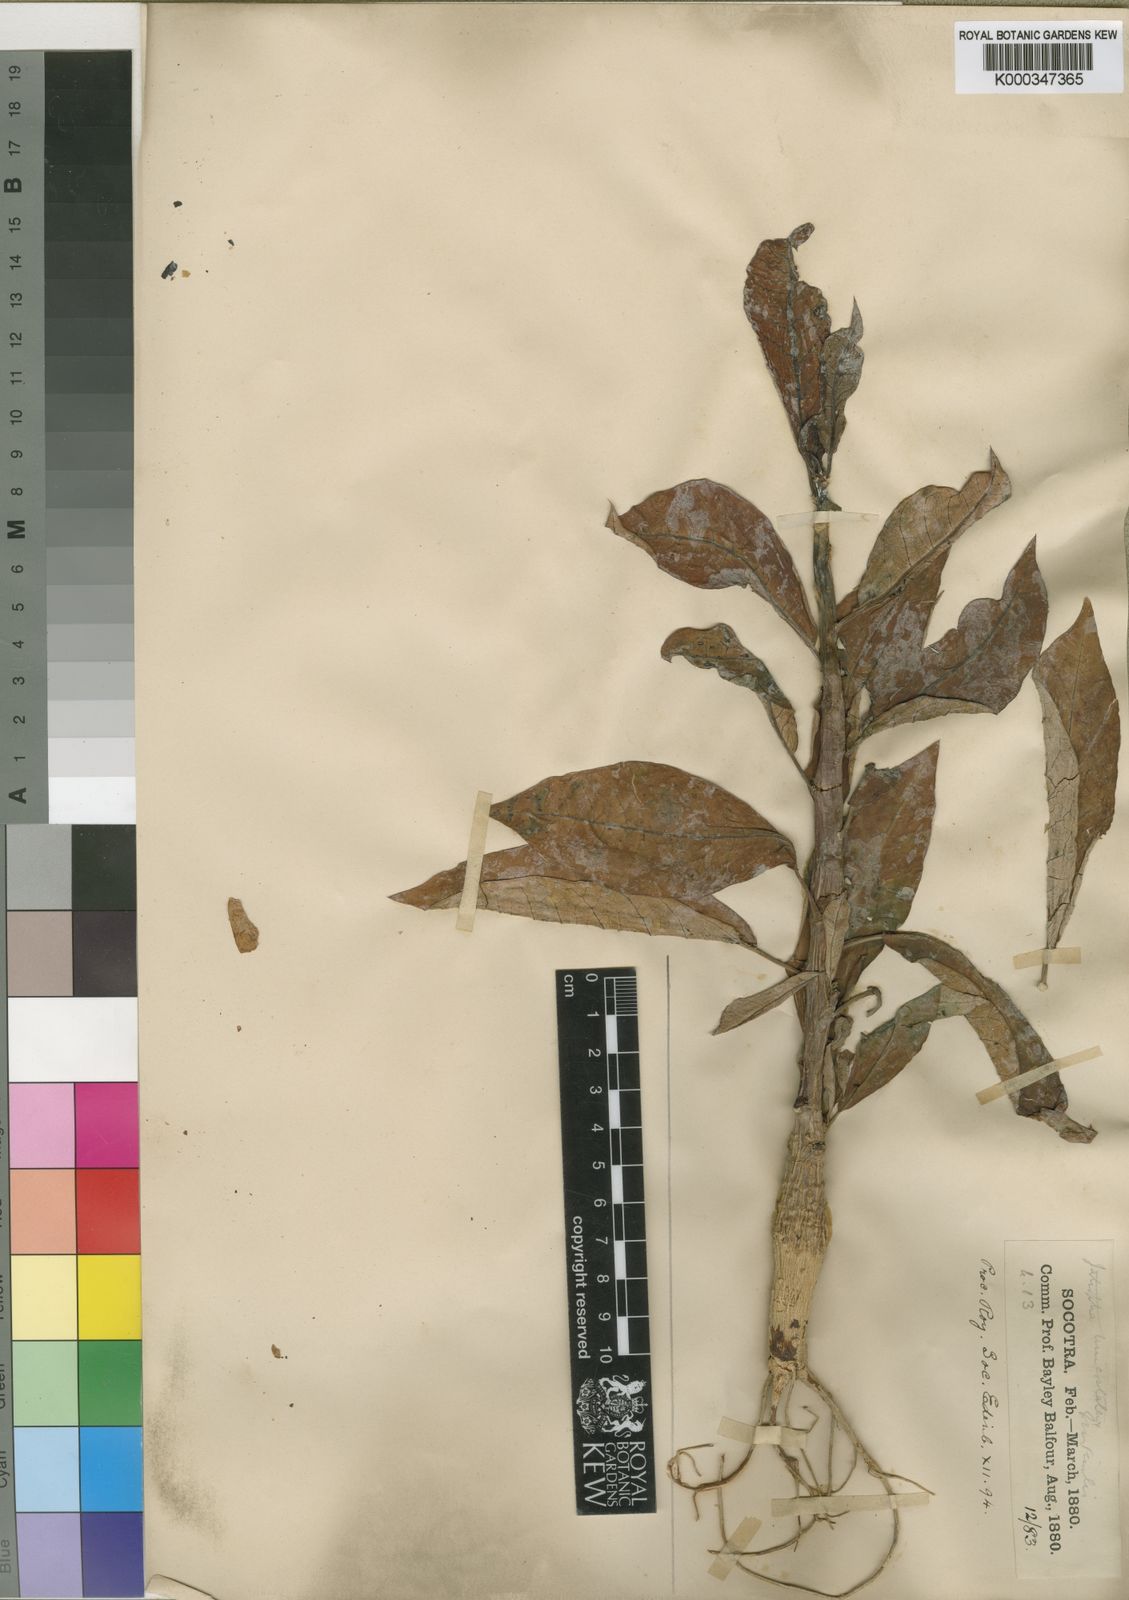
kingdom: Plantae
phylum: Tracheophyta
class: Magnoliopsida
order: Malpighiales
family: Euphorbiaceae
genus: Jatropha
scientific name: Jatropha unicostata
